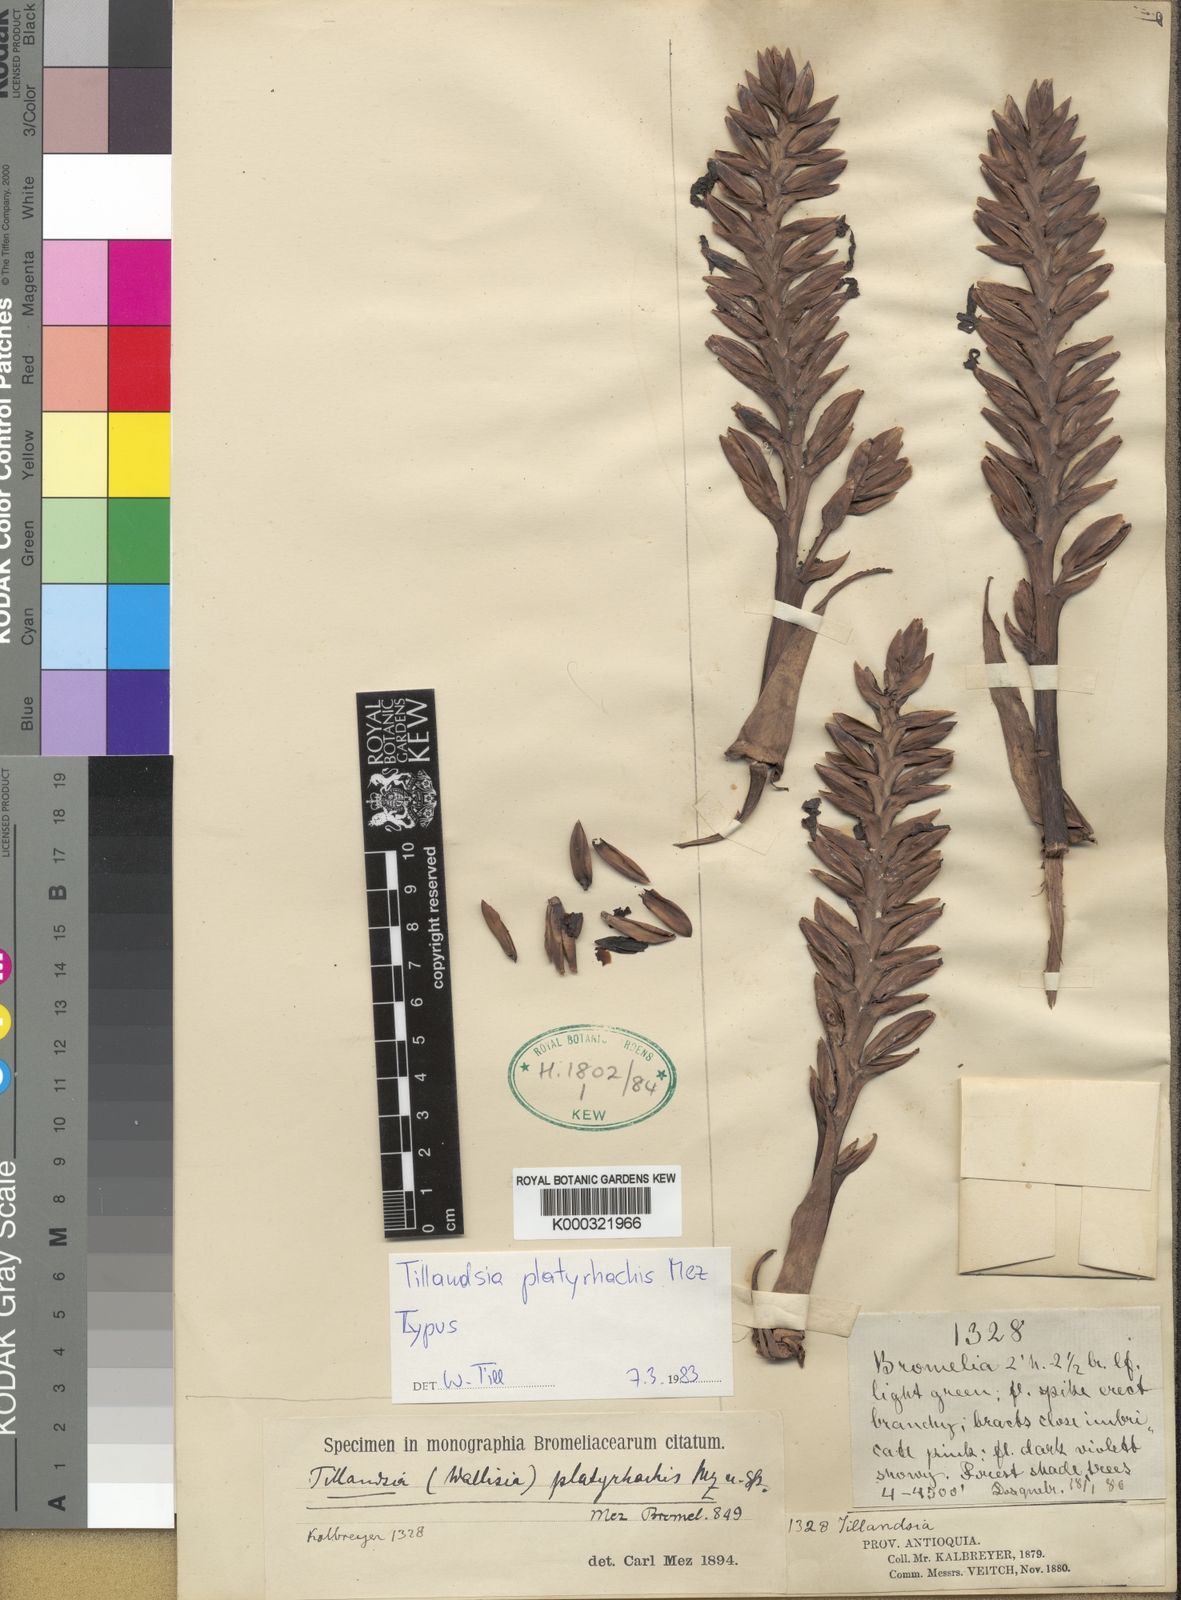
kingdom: Plantae
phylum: Tracheophyta
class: Liliopsida
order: Poales
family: Bromeliaceae
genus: Barfussia
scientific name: Barfussia platyrhachis
